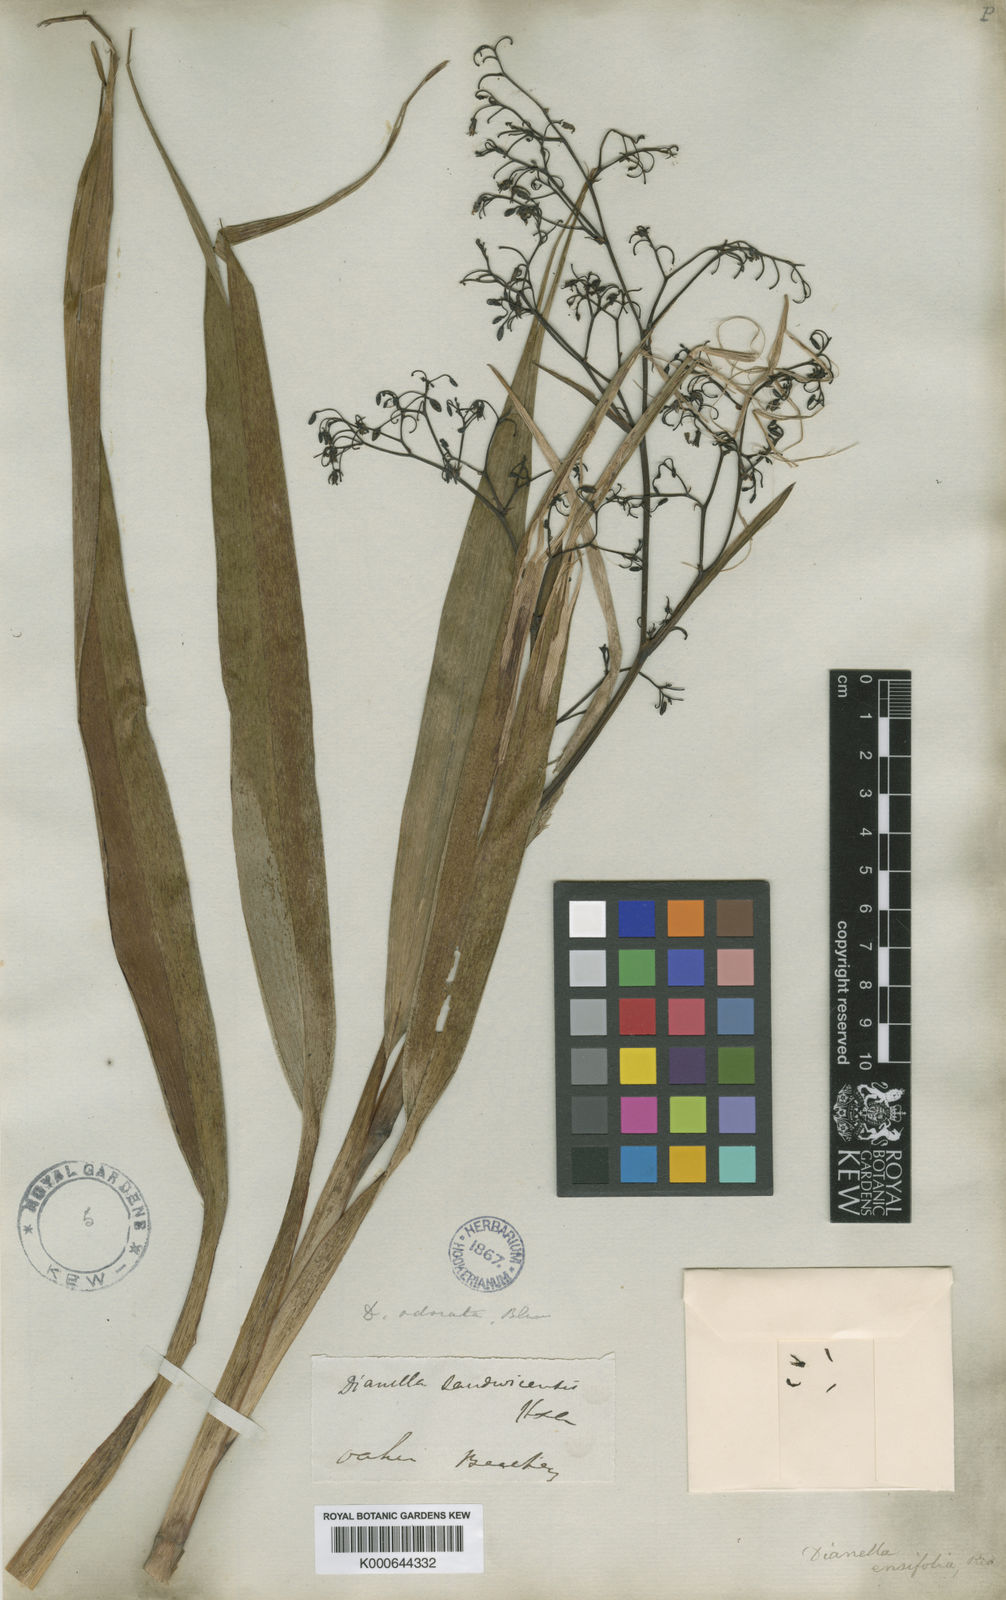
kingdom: Plantae
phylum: Tracheophyta
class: Liliopsida
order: Asparagales
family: Asphodelaceae
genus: Dianella
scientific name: Dianella sandwicensis
